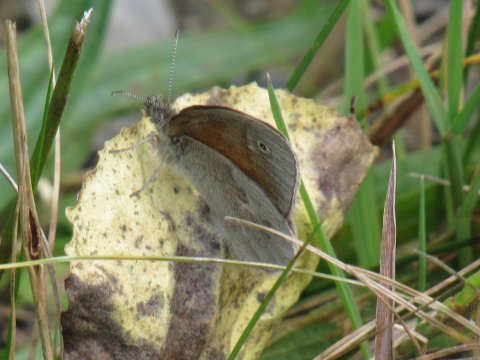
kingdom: Animalia
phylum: Arthropoda
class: Insecta
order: Lepidoptera
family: Nymphalidae
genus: Coenonympha
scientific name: Coenonympha tullia
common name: Large Heath
